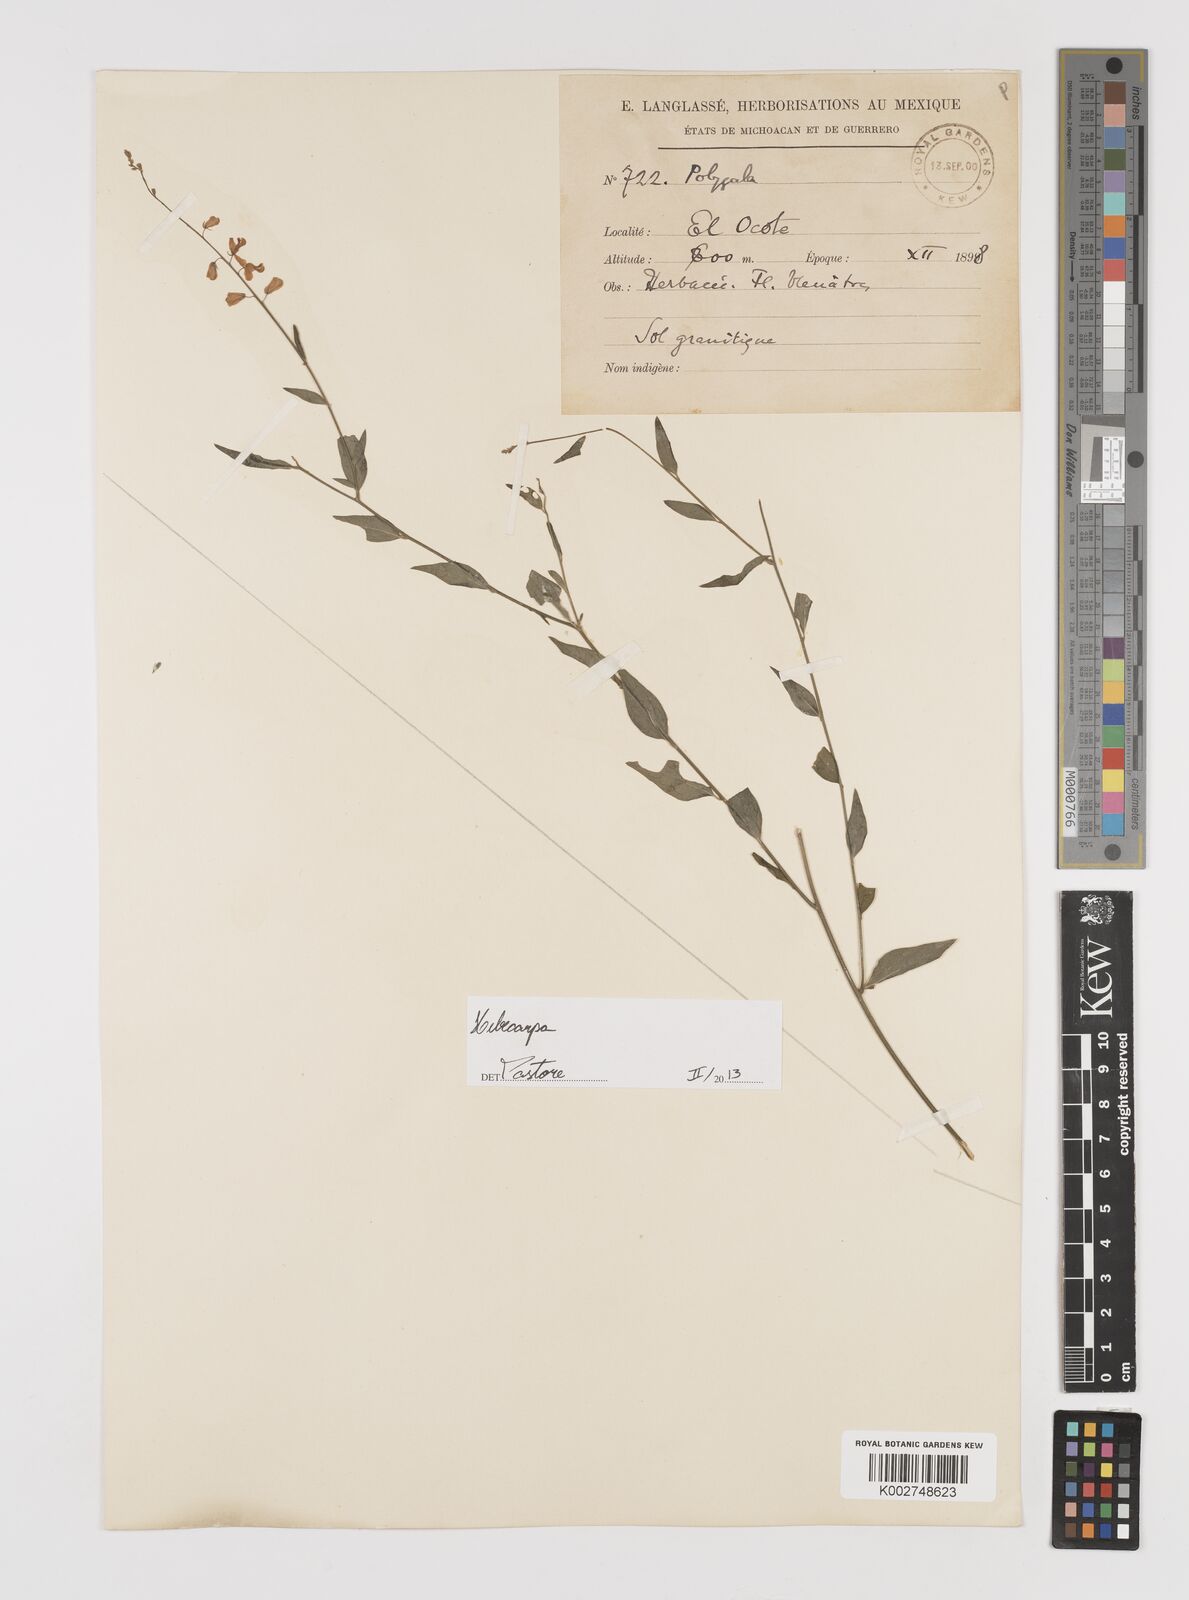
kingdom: Plantae
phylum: Tracheophyta
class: Magnoliopsida
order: Fabales
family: Polygalaceae
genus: Hebecarpa
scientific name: Hebecarpa
